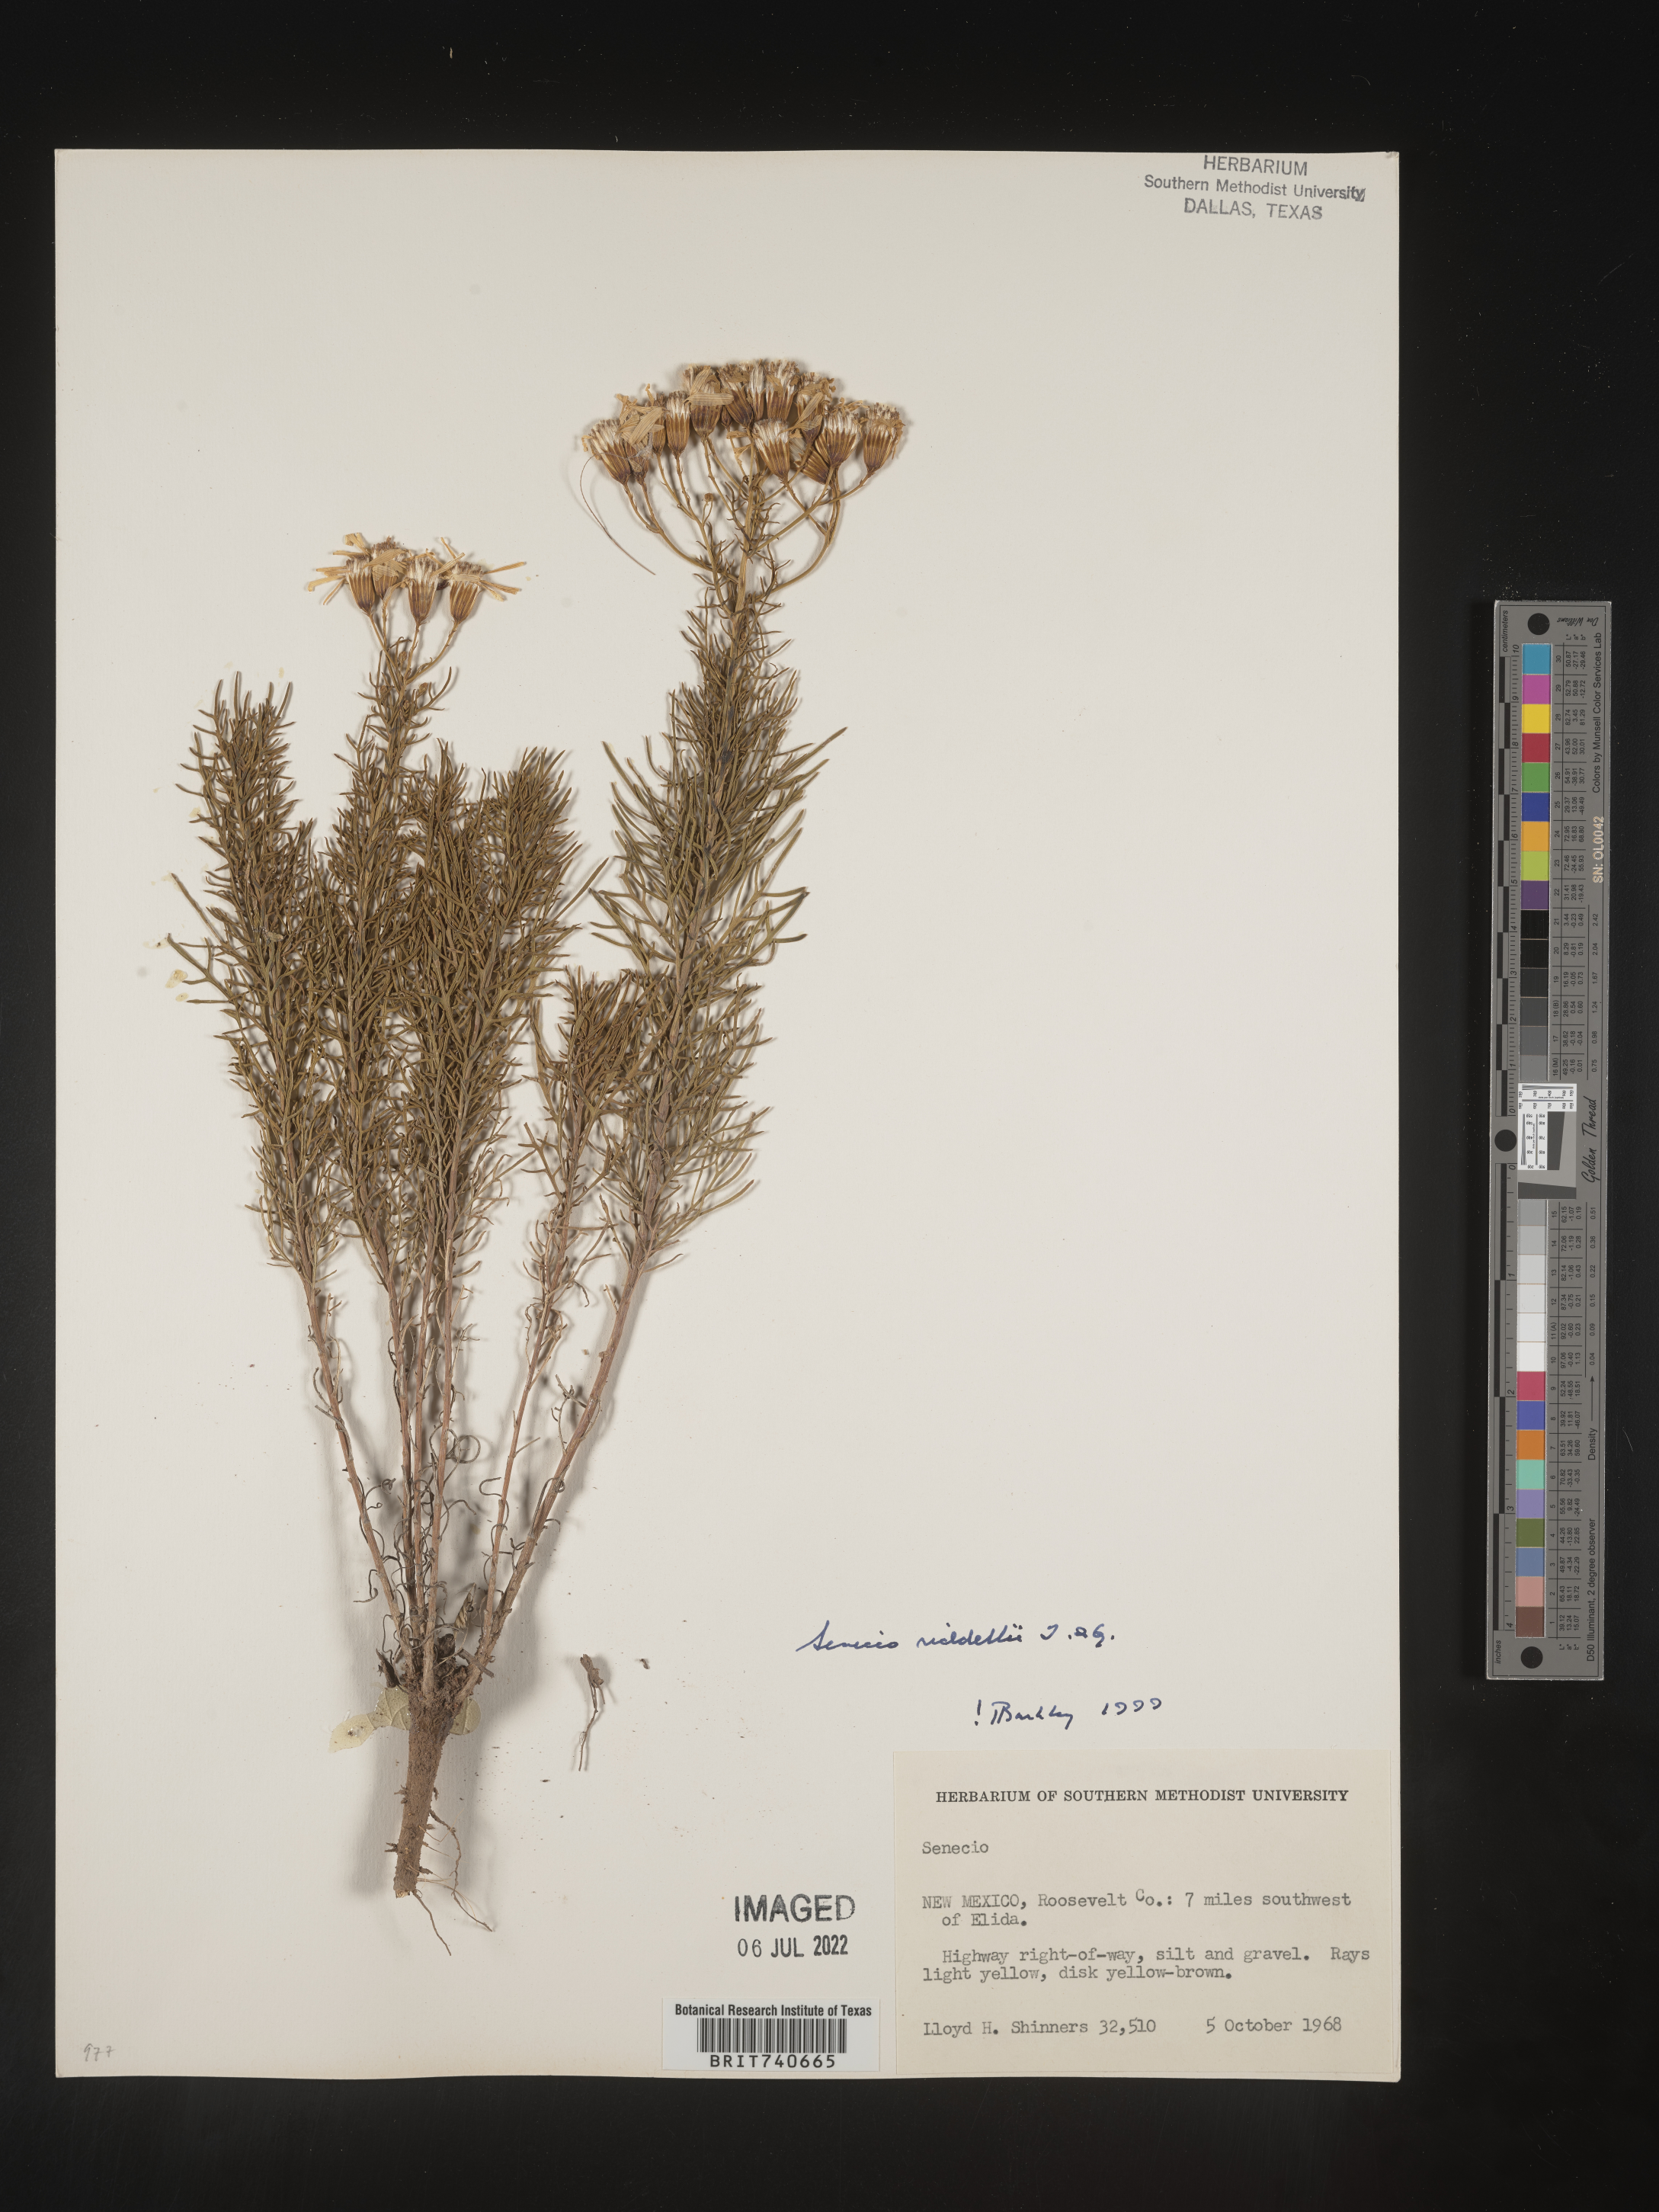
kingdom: Plantae
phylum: Tracheophyta
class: Magnoliopsida
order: Asterales
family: Asteraceae
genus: Senecio
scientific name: Senecio riddellii
